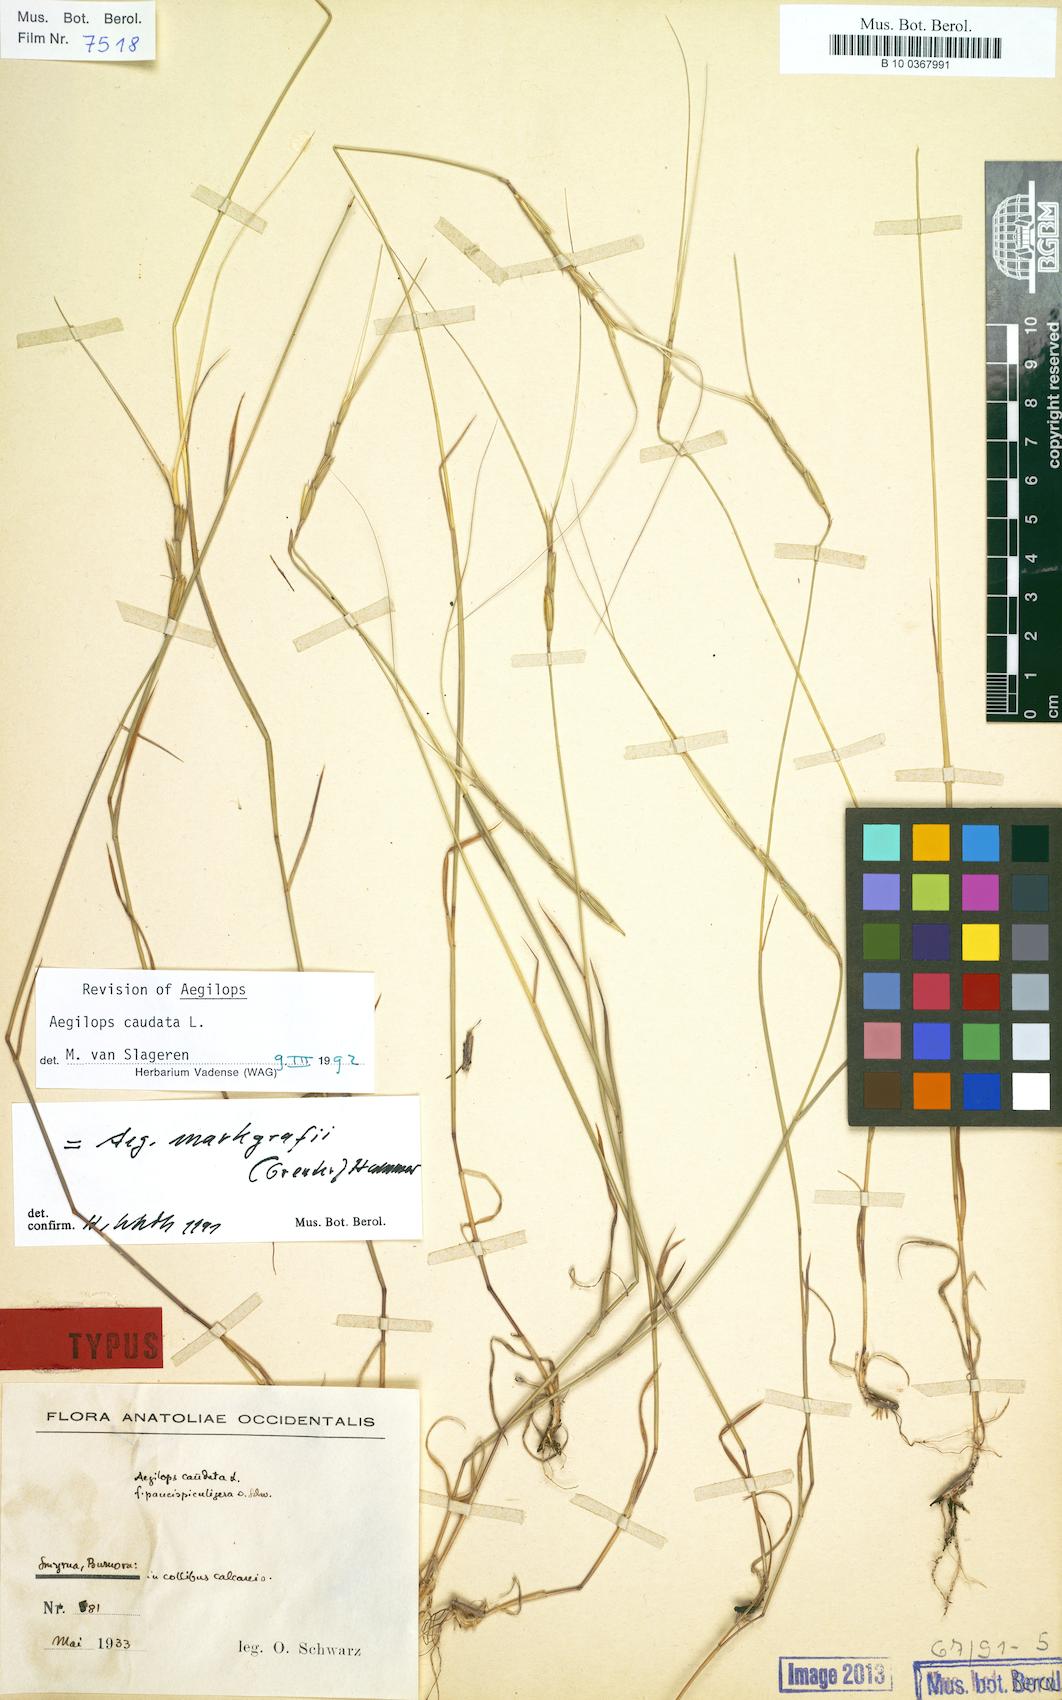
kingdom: Plantae
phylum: Tracheophyta
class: Liliopsida
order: Poales
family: Poaceae
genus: Aegilops
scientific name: Aegilops caudata
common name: Cretan hard-grass
